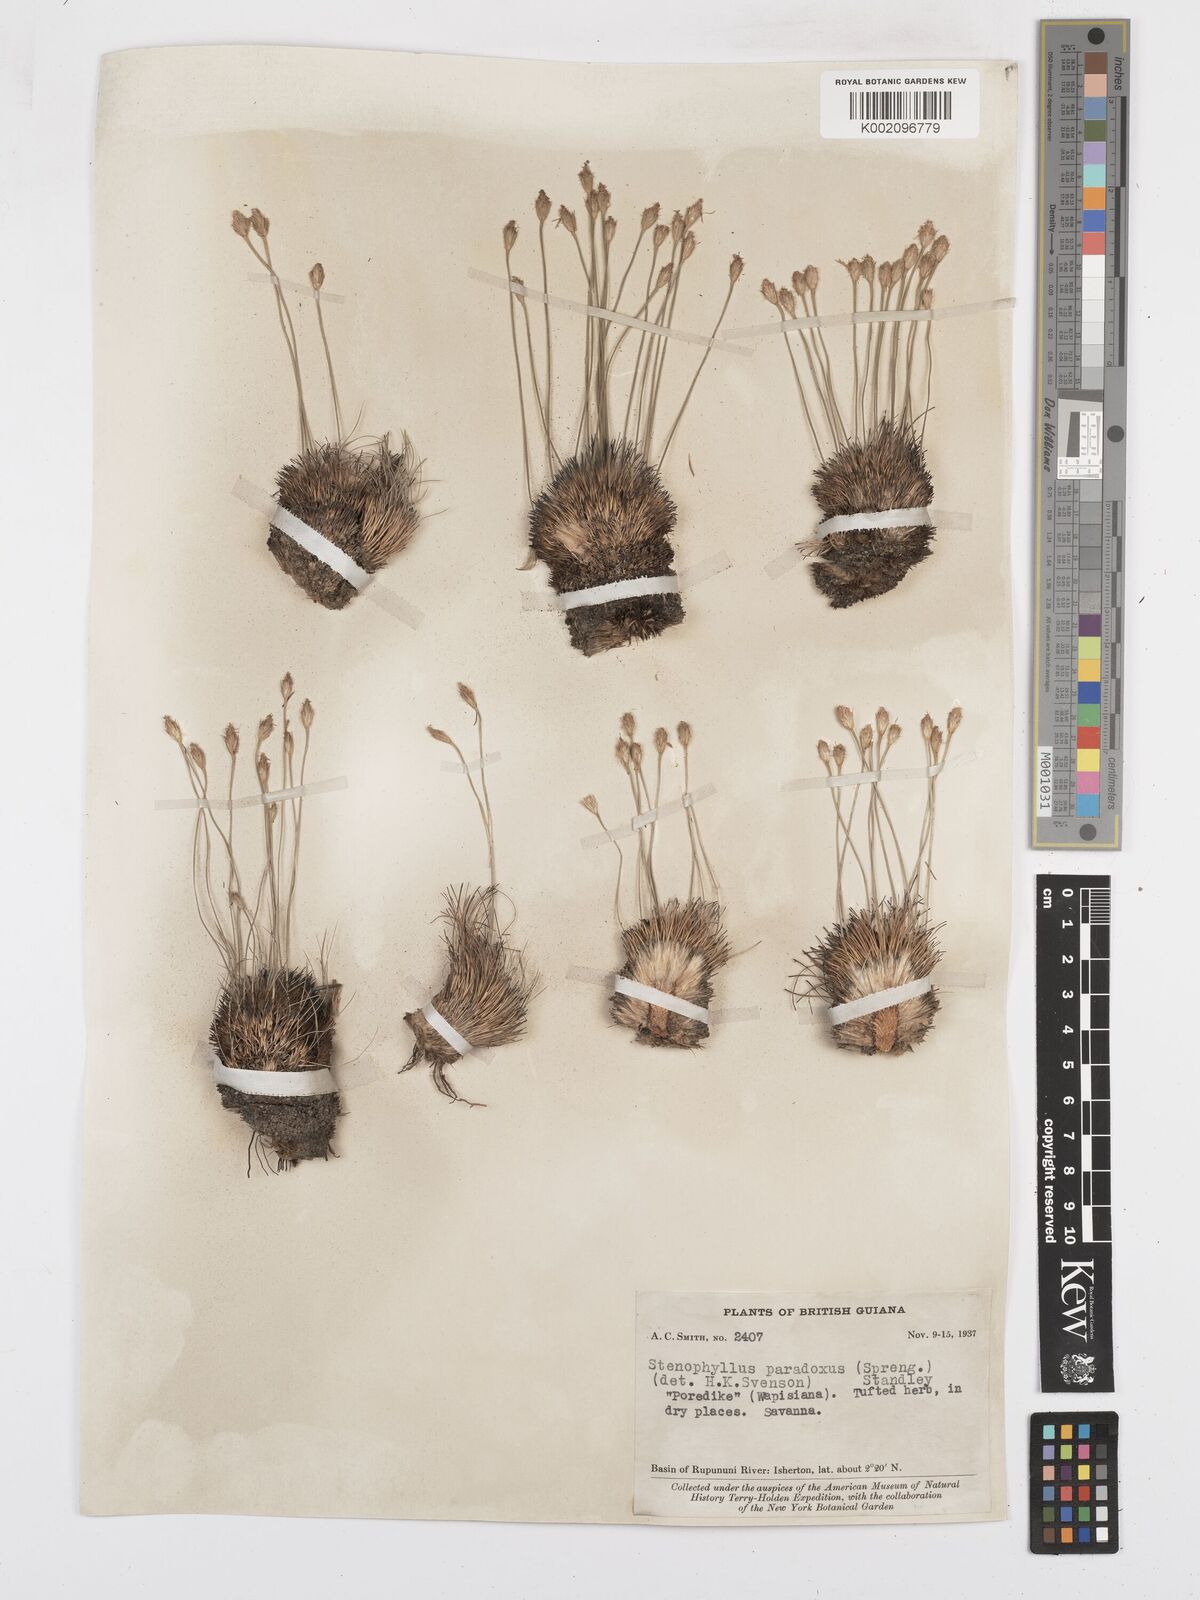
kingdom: Plantae
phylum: Tracheophyta
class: Liliopsida
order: Poales
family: Cyperaceae
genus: Bulbostylis
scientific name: Bulbostylis paradoxa
